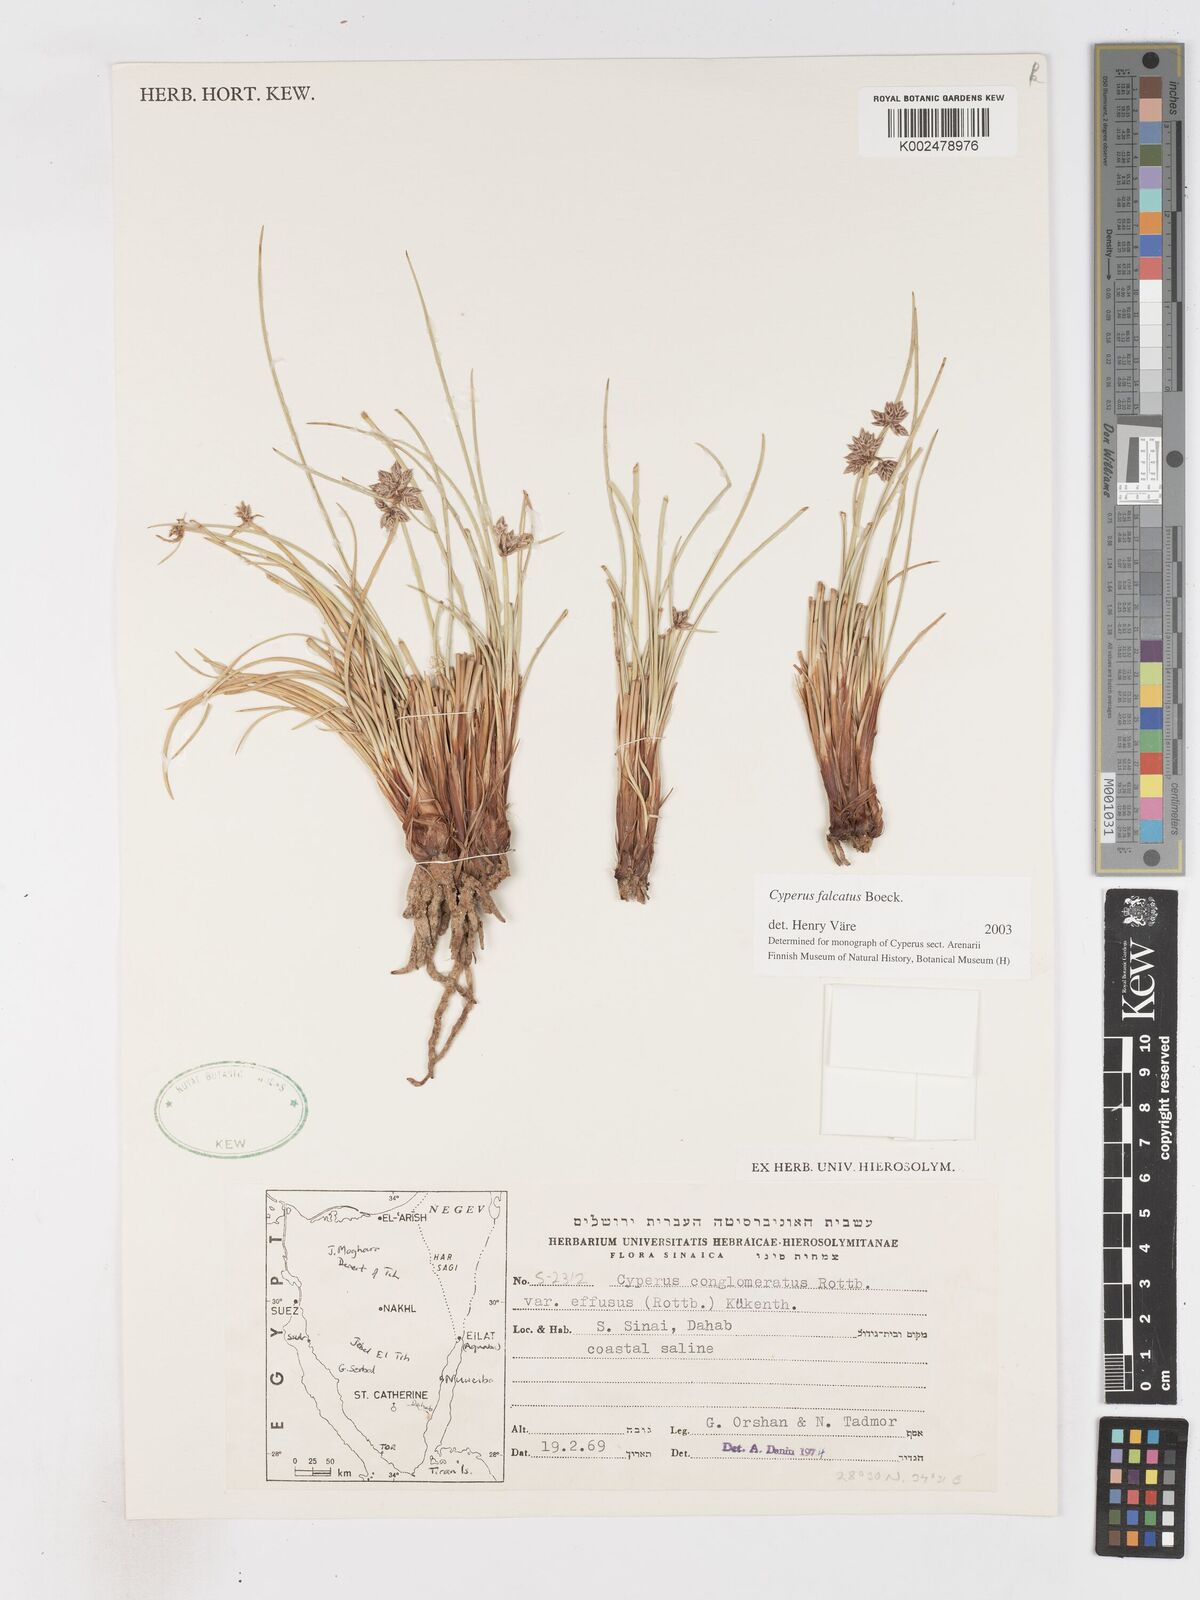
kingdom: Plantae
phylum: Tracheophyta
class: Liliopsida
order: Poales
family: Cyperaceae
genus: Cyperus
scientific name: Cyperus conglomeratus
